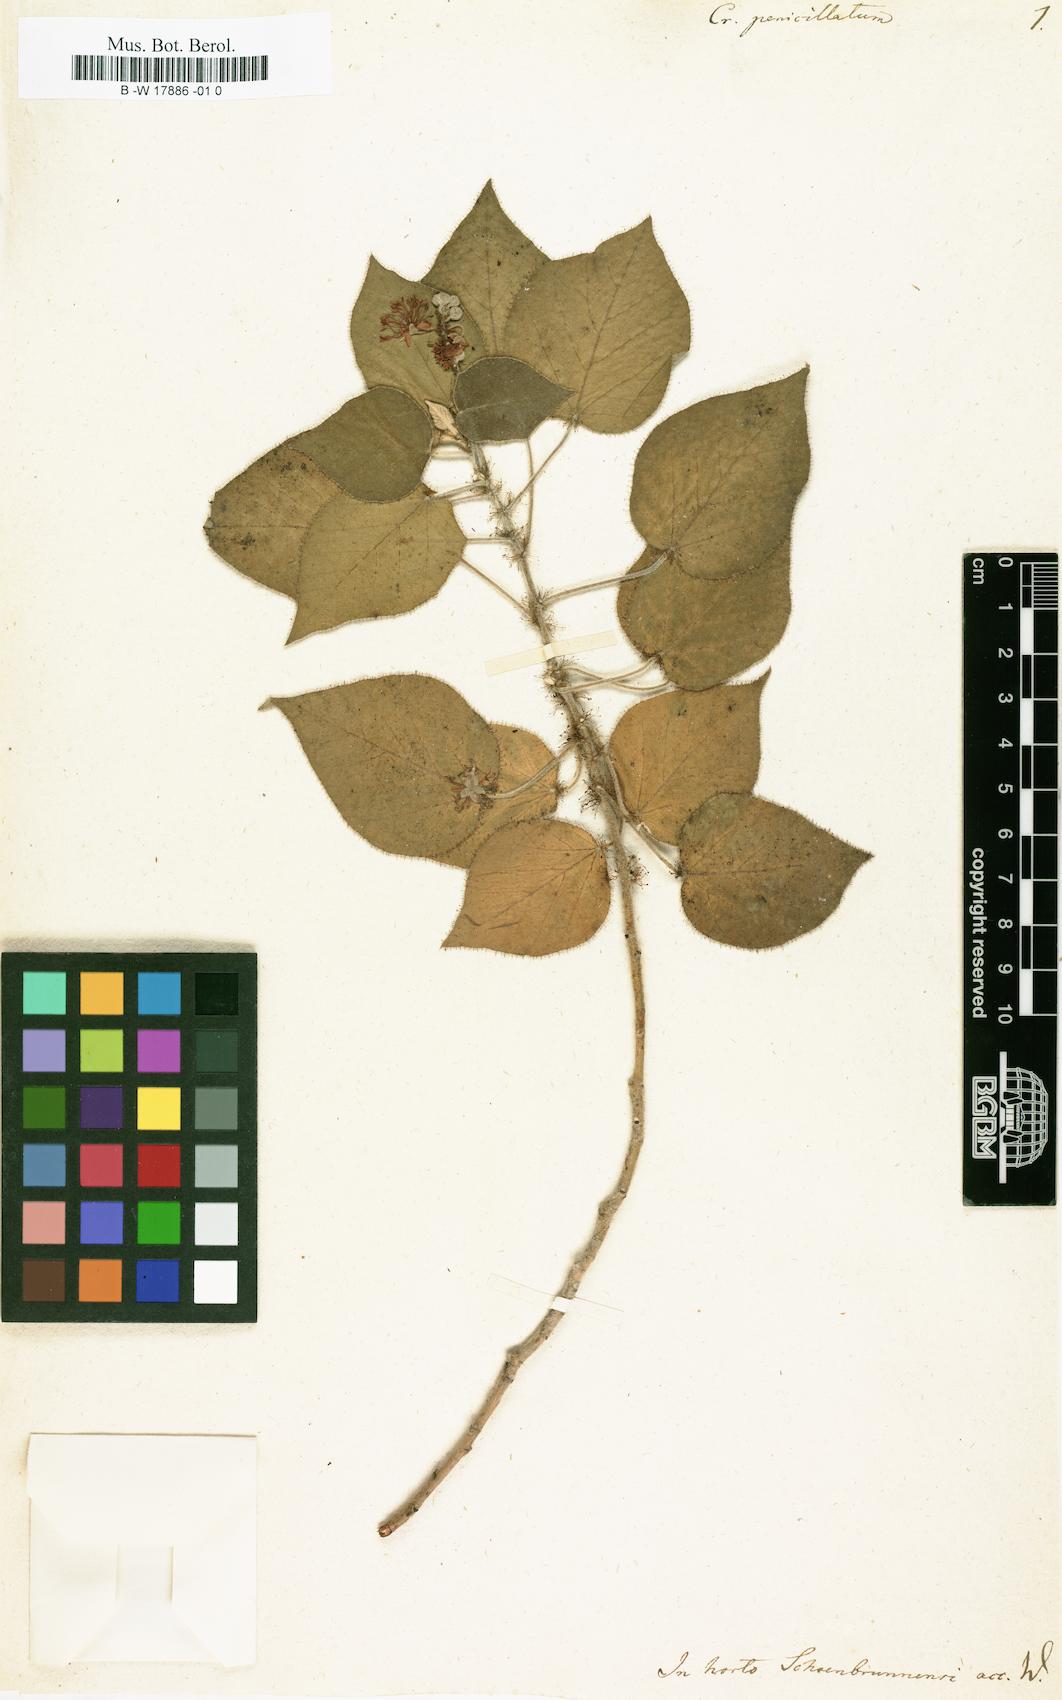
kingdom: Plantae
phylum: Tracheophyta
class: Magnoliopsida
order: Malpighiales
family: Euphorbiaceae
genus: Croton
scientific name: Croton ciliatoglandulifer
